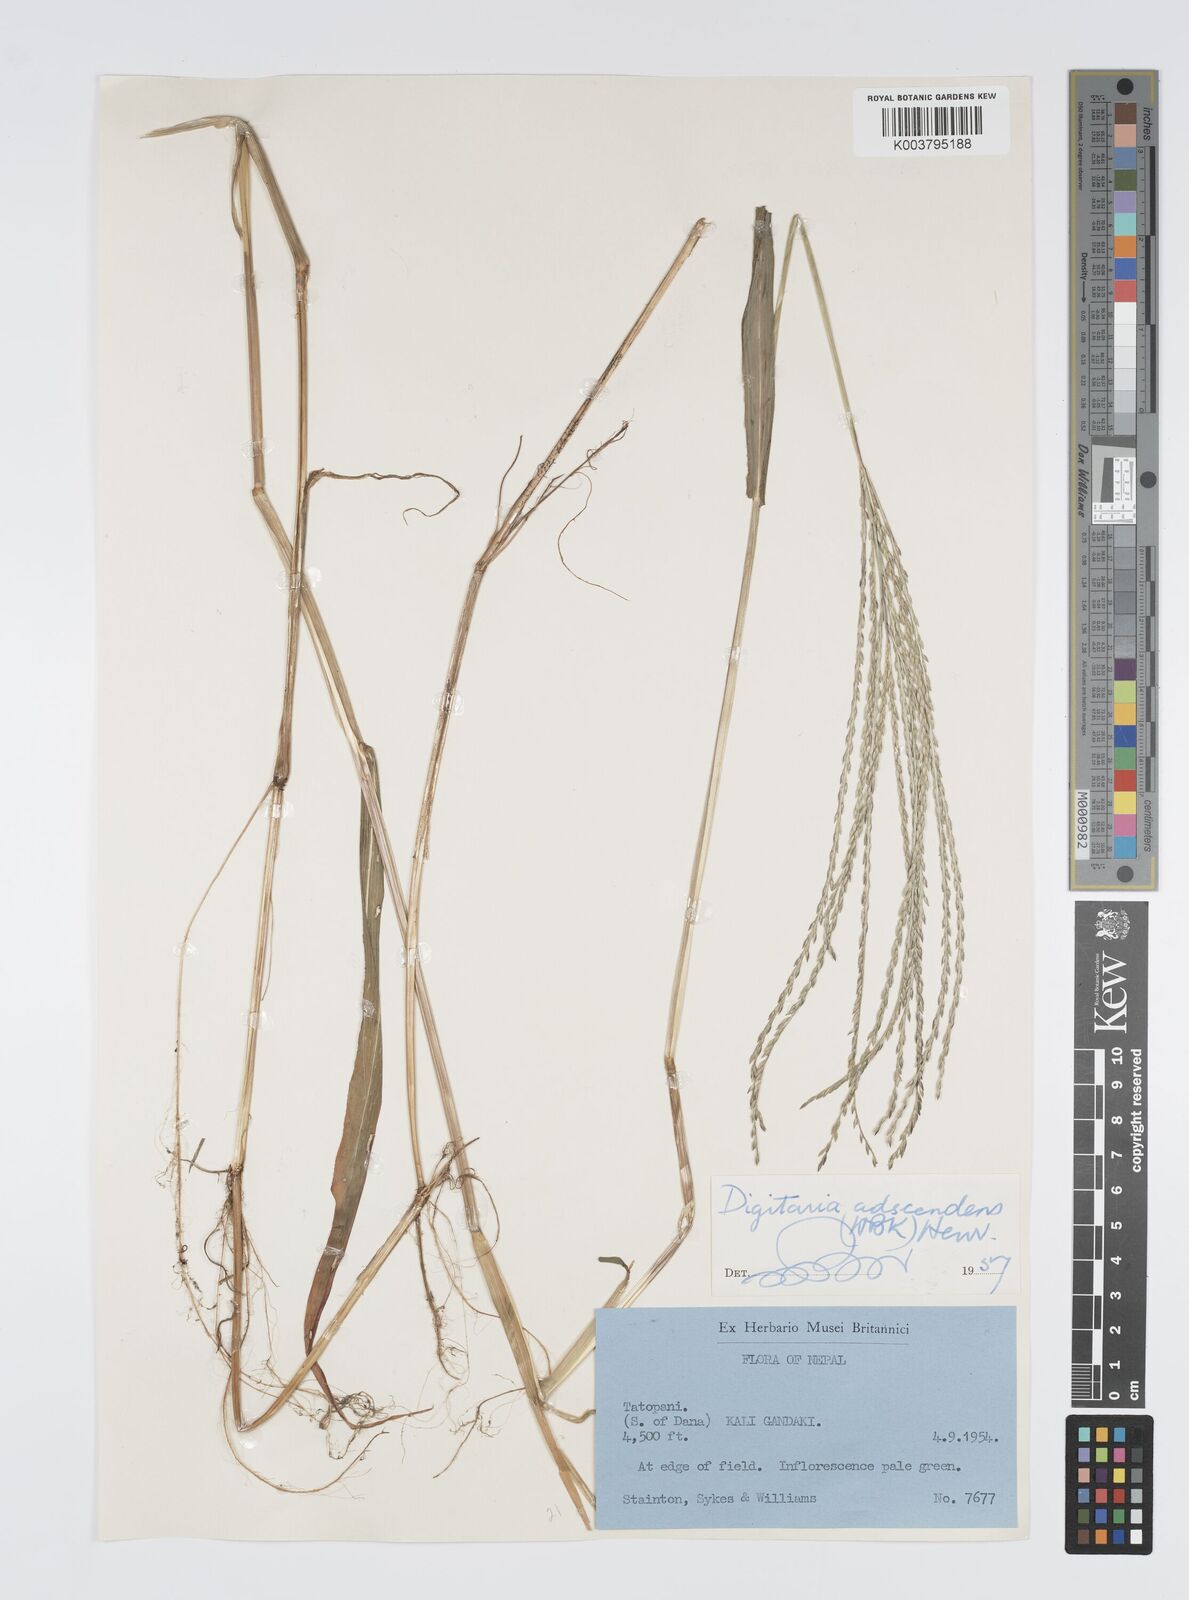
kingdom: Plantae
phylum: Tracheophyta
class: Liliopsida
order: Poales
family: Poaceae
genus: Digitaria
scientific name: Digitaria ciliaris
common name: Tropical finger-grass
